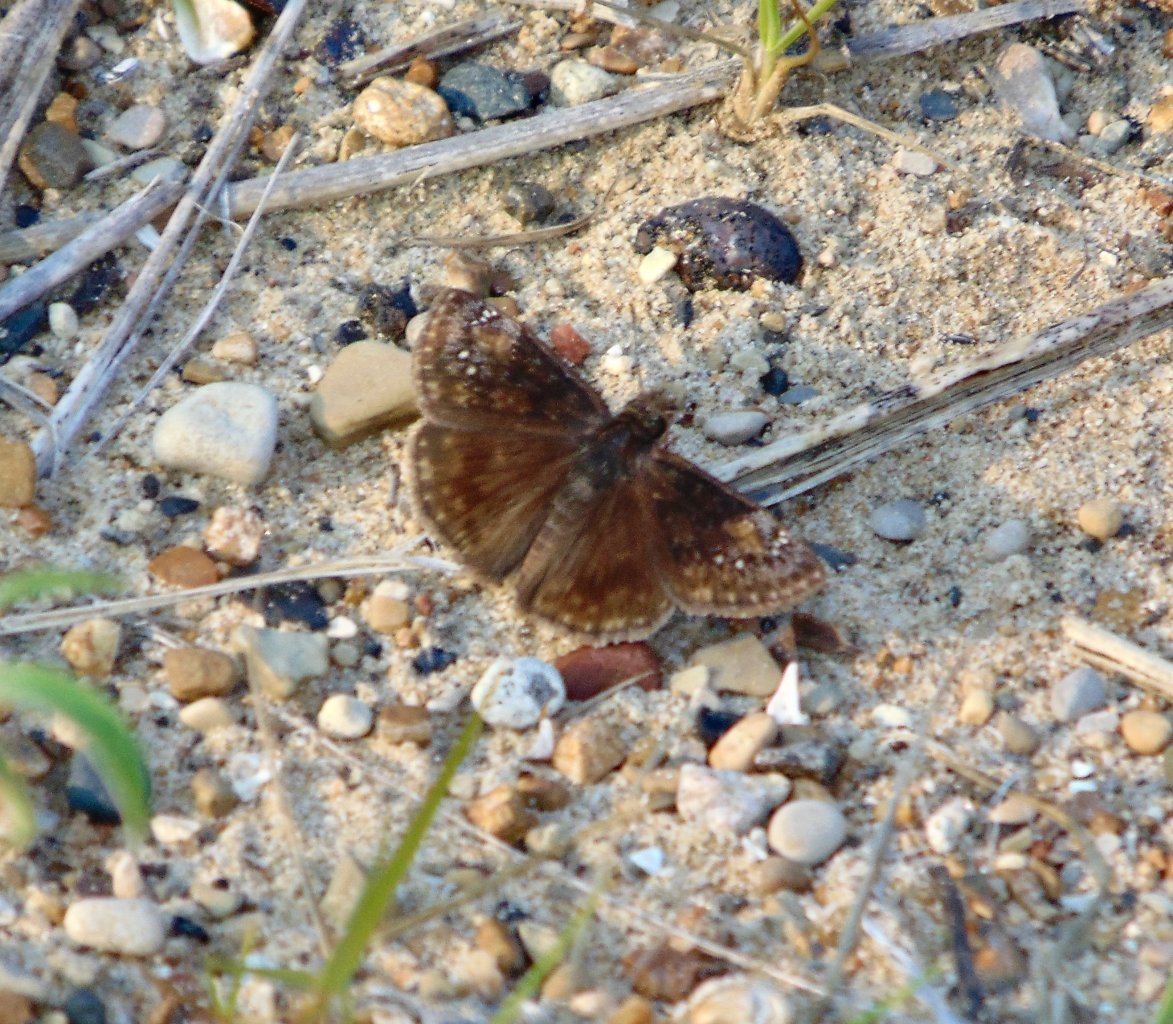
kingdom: Animalia
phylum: Arthropoda
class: Insecta
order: Lepidoptera
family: Hesperiidae
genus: Gesta
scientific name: Gesta
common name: Wild Indigo Duskywing
